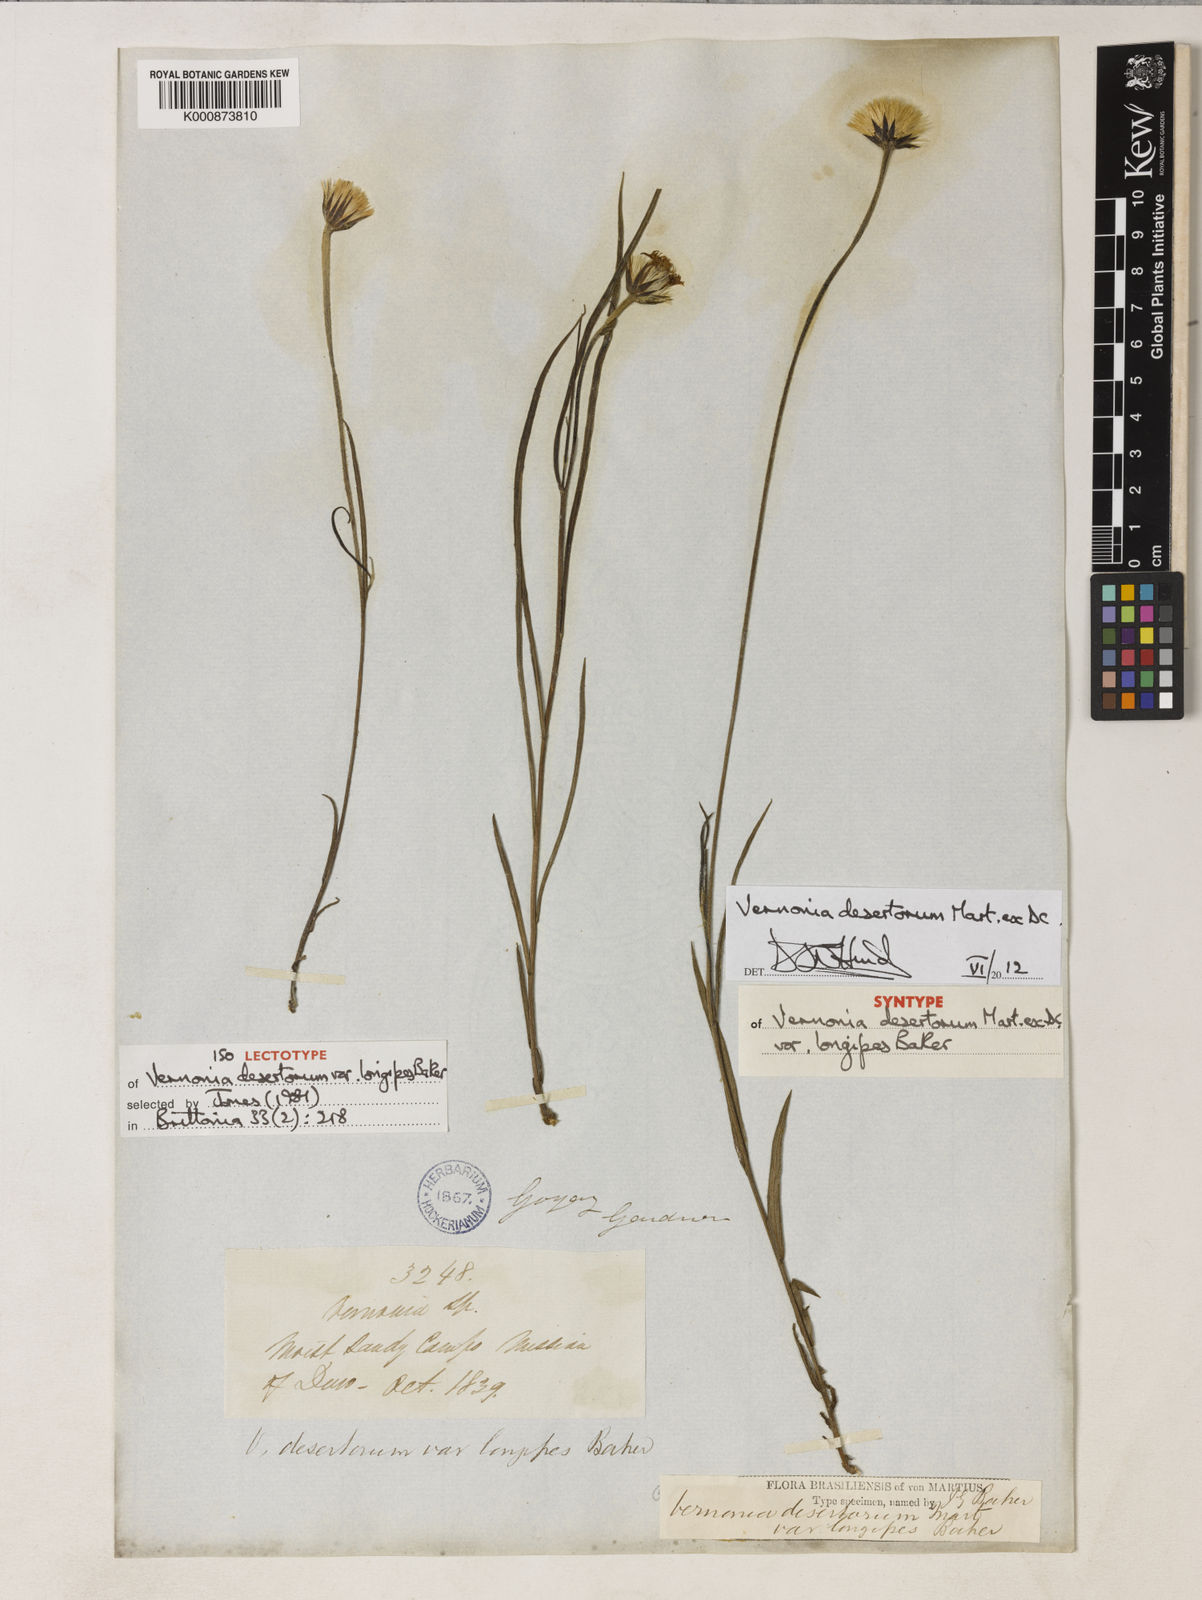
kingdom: Plantae
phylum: Tracheophyta
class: Magnoliopsida
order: Asterales
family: Asteraceae
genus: Chrysolaena
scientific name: Chrysolaena desertorum
